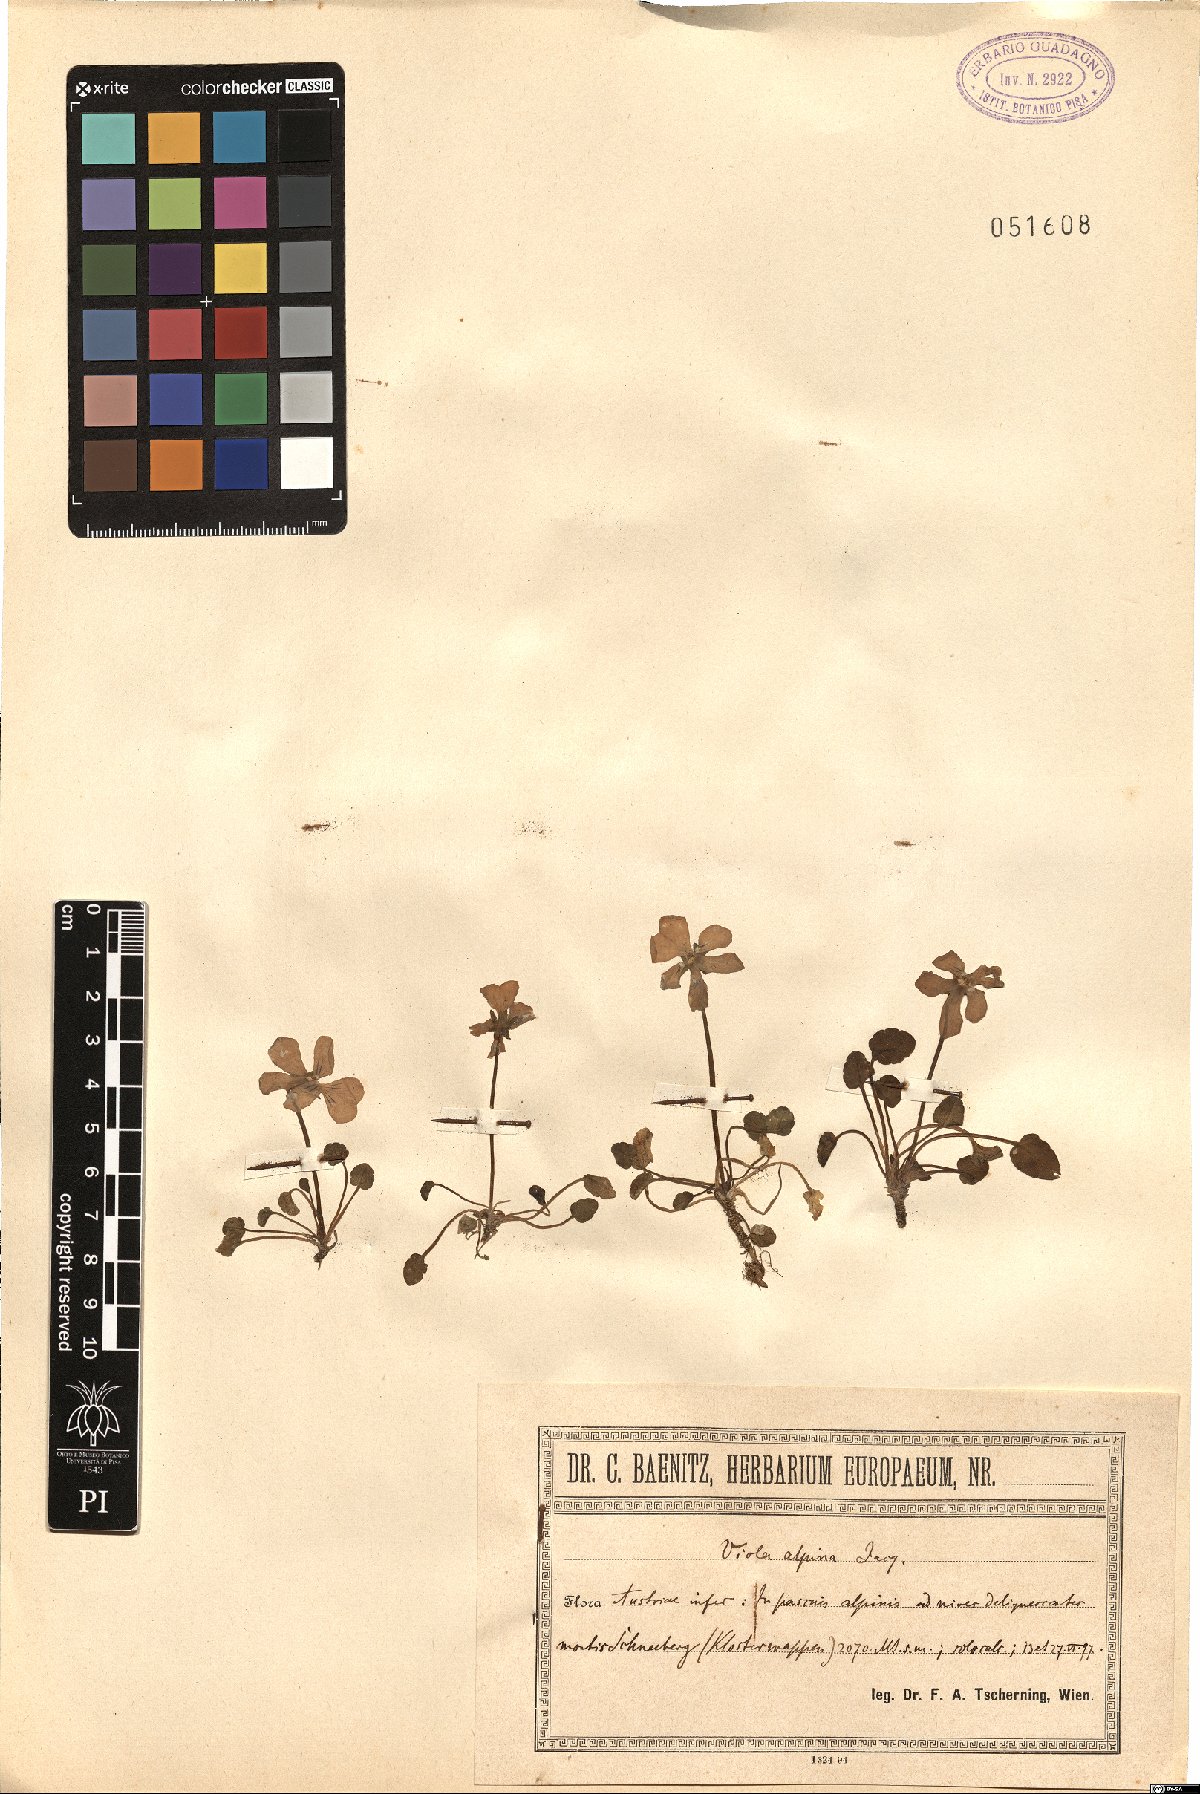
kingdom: Plantae
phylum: Tracheophyta
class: Magnoliopsida
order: Malpighiales
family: Violaceae
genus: Viola
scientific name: Viola alpina
